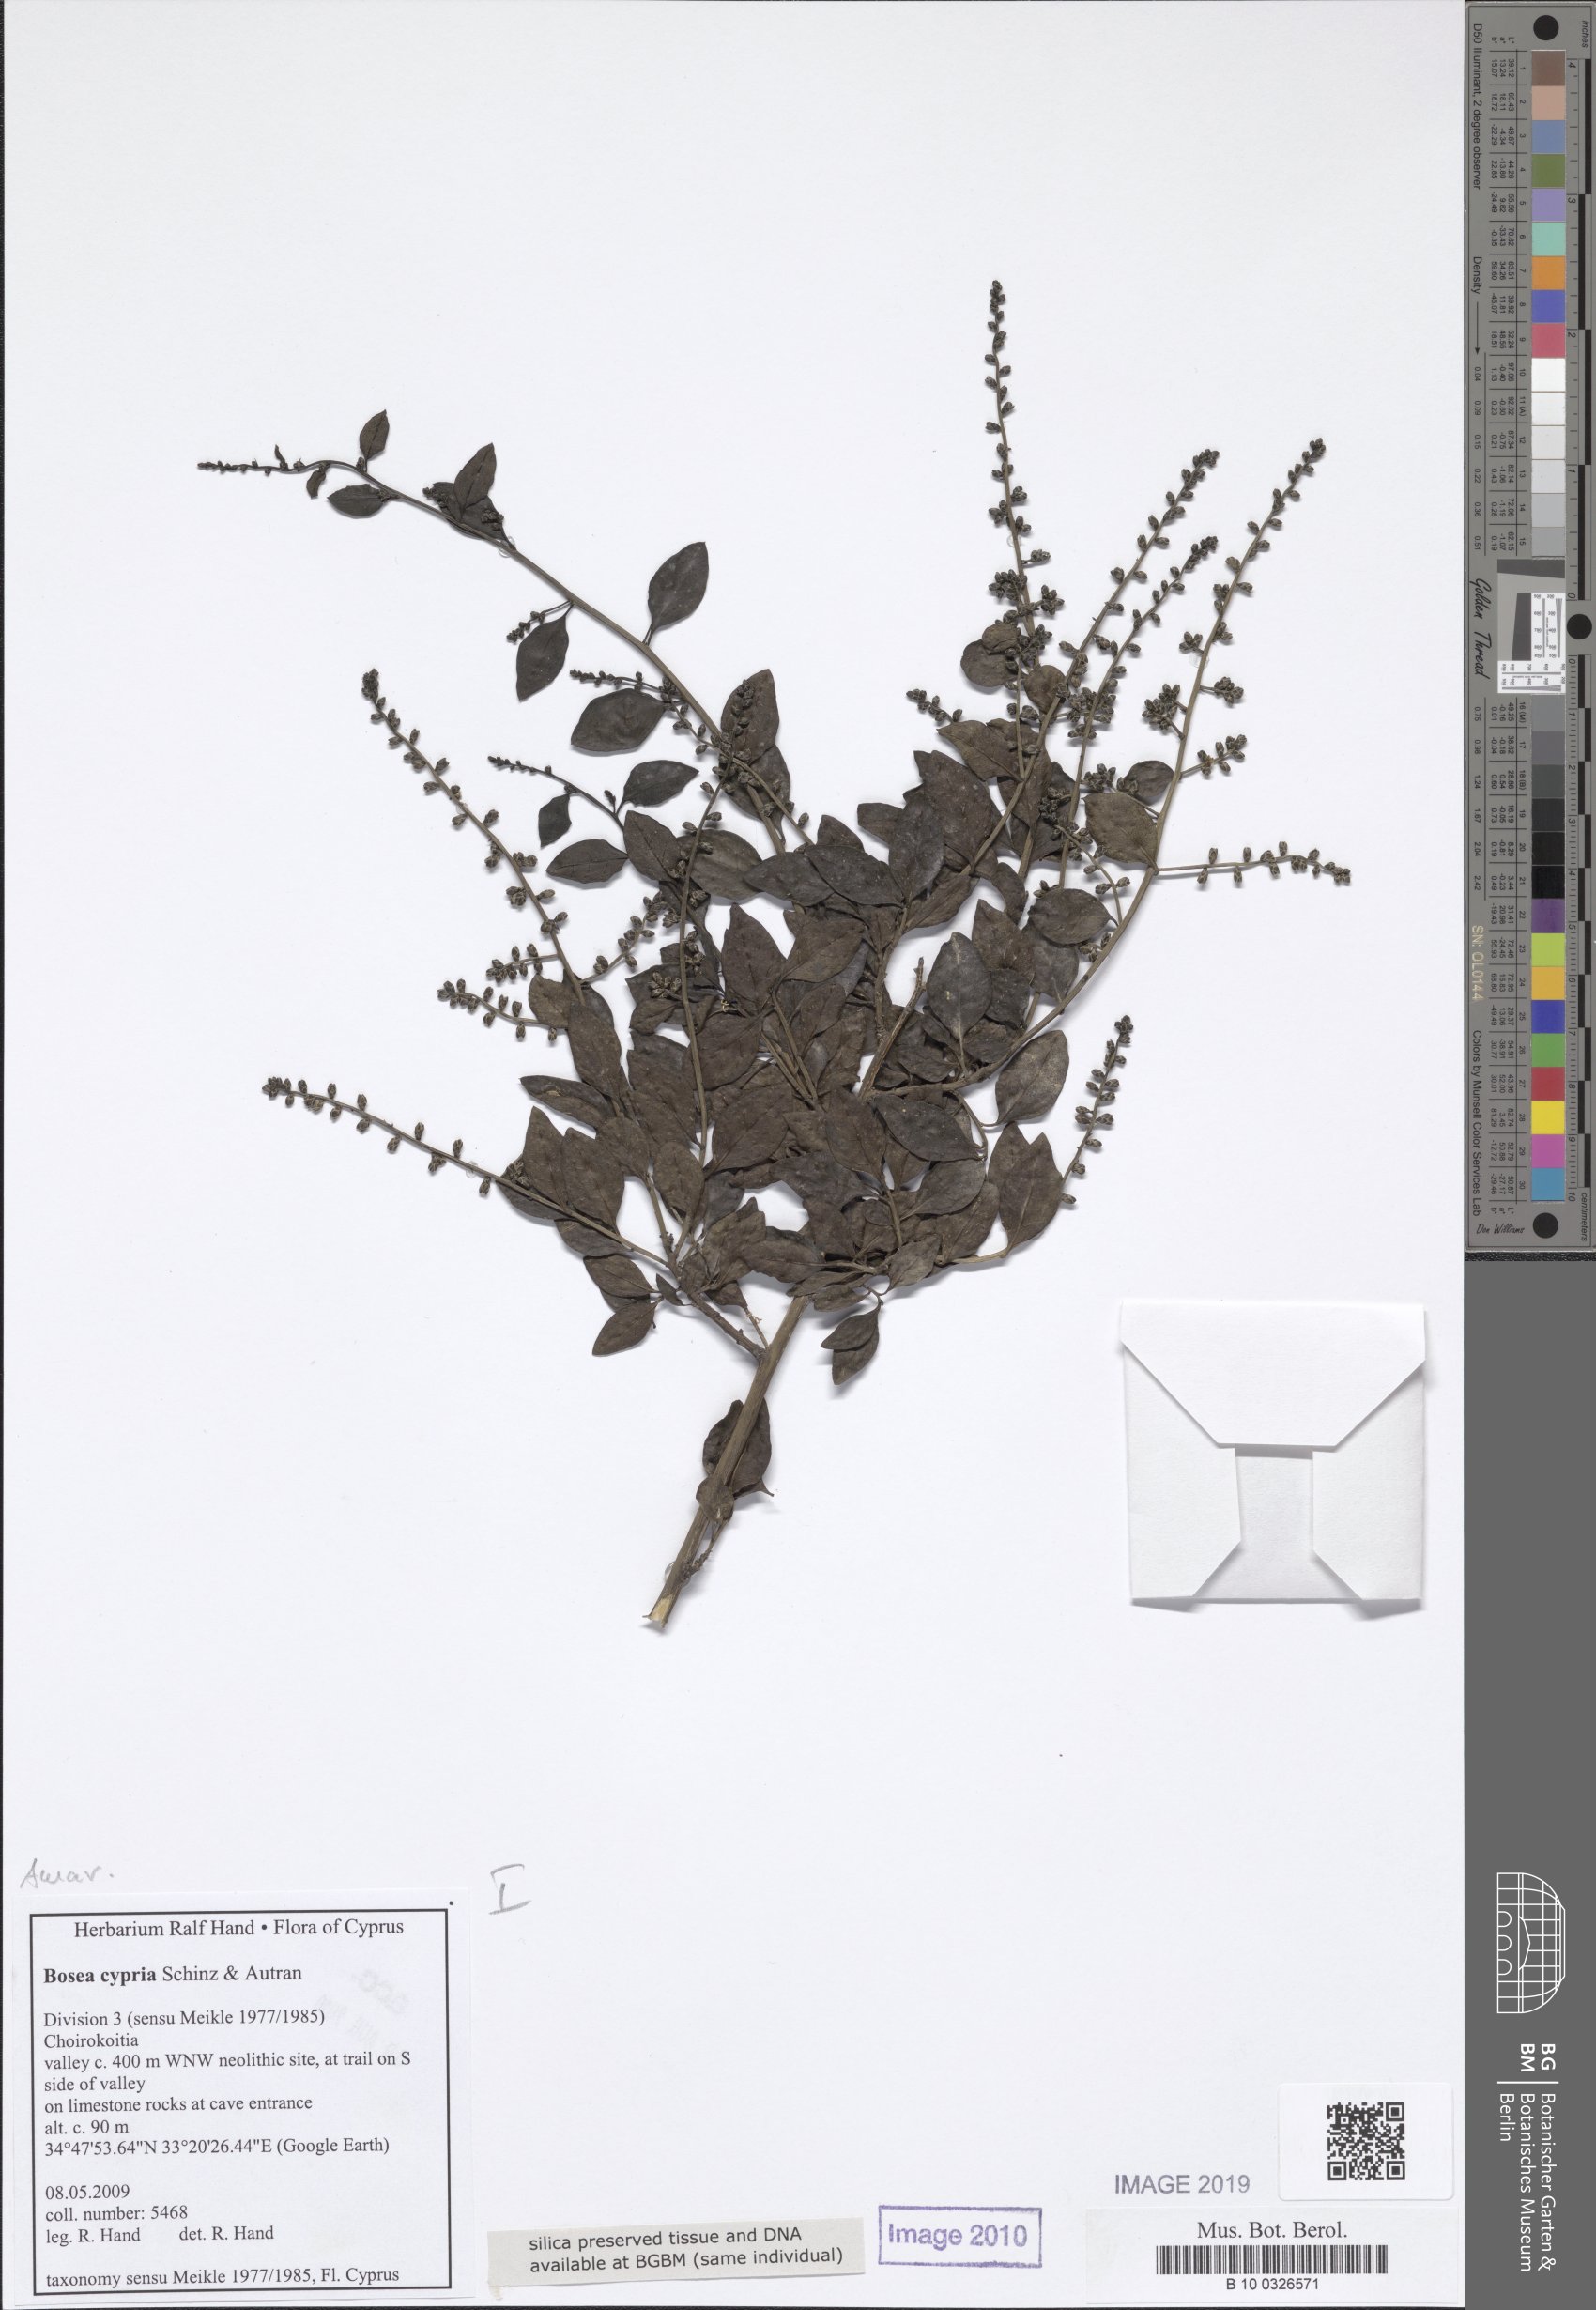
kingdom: Plantae
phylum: Tracheophyta
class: Magnoliopsida
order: Caryophyllales
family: Amaranthaceae
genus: Bosea
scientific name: Bosea cypria
